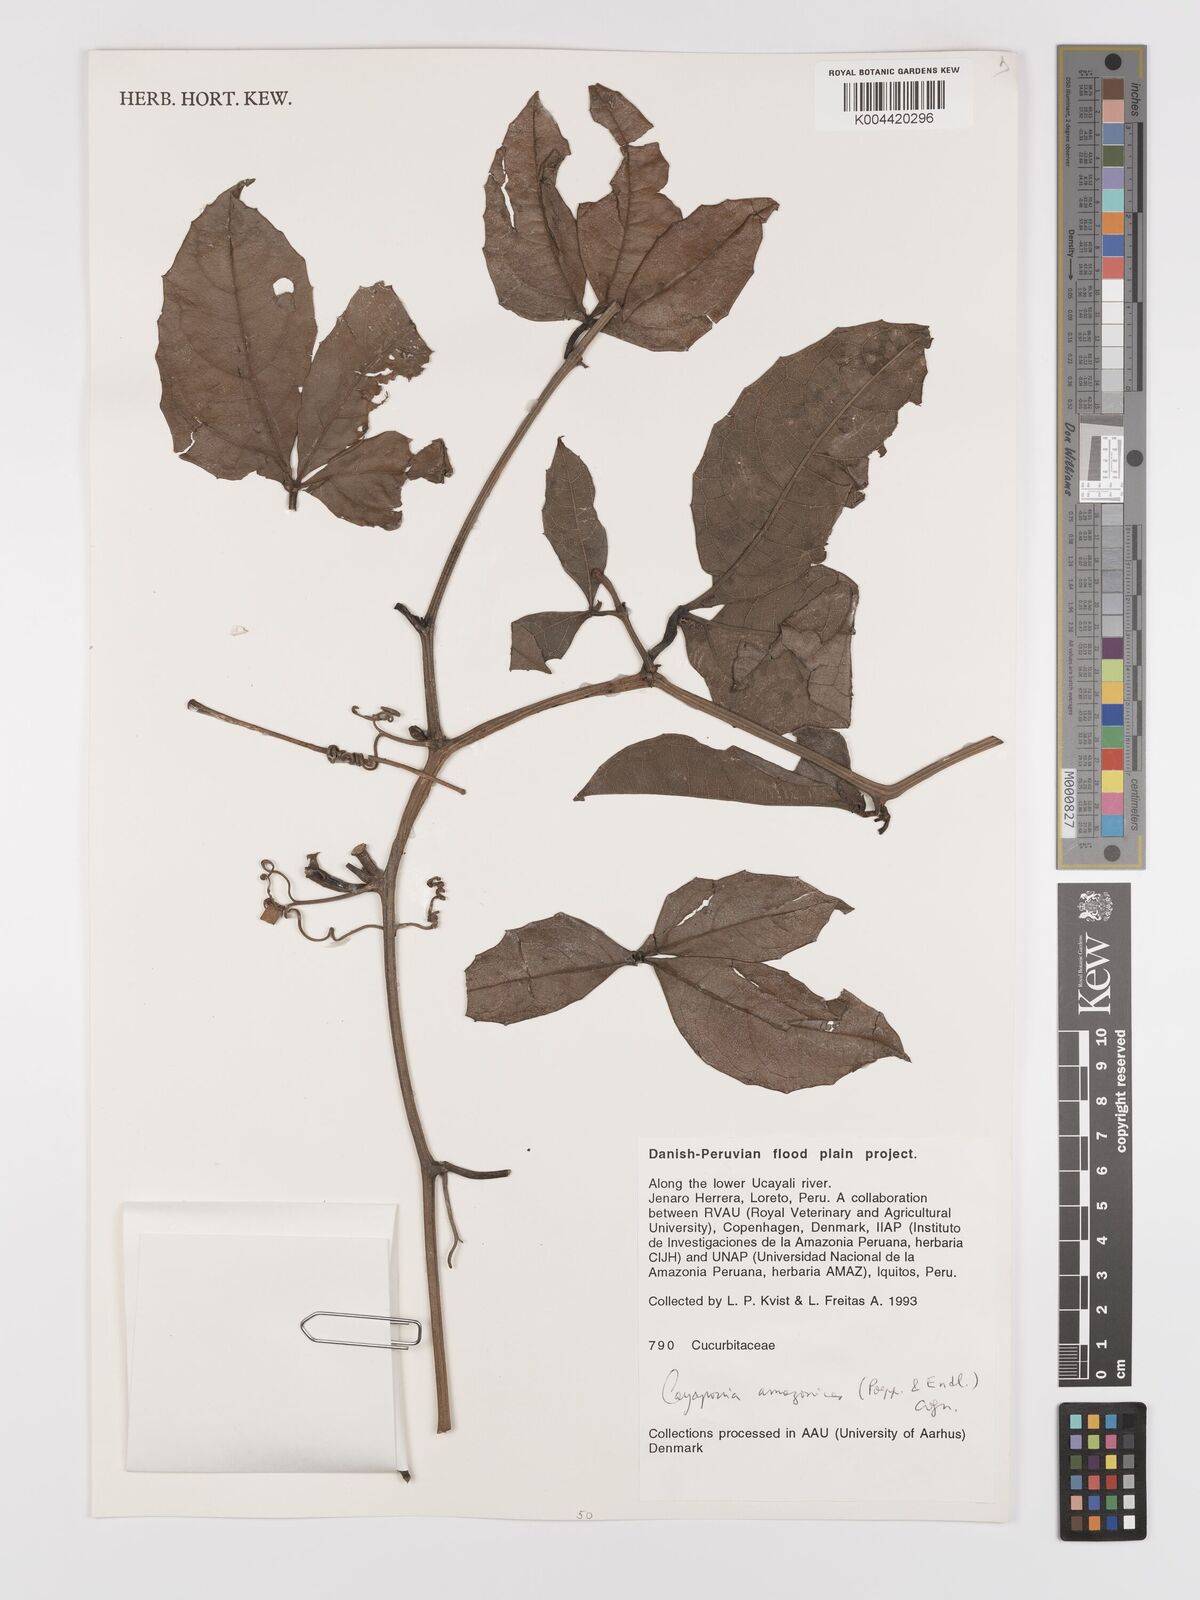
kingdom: Plantae
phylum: Tracheophyta
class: Magnoliopsida
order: Cucurbitales
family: Cucurbitaceae
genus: Cayaponia
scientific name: Cayaponia amazonica
